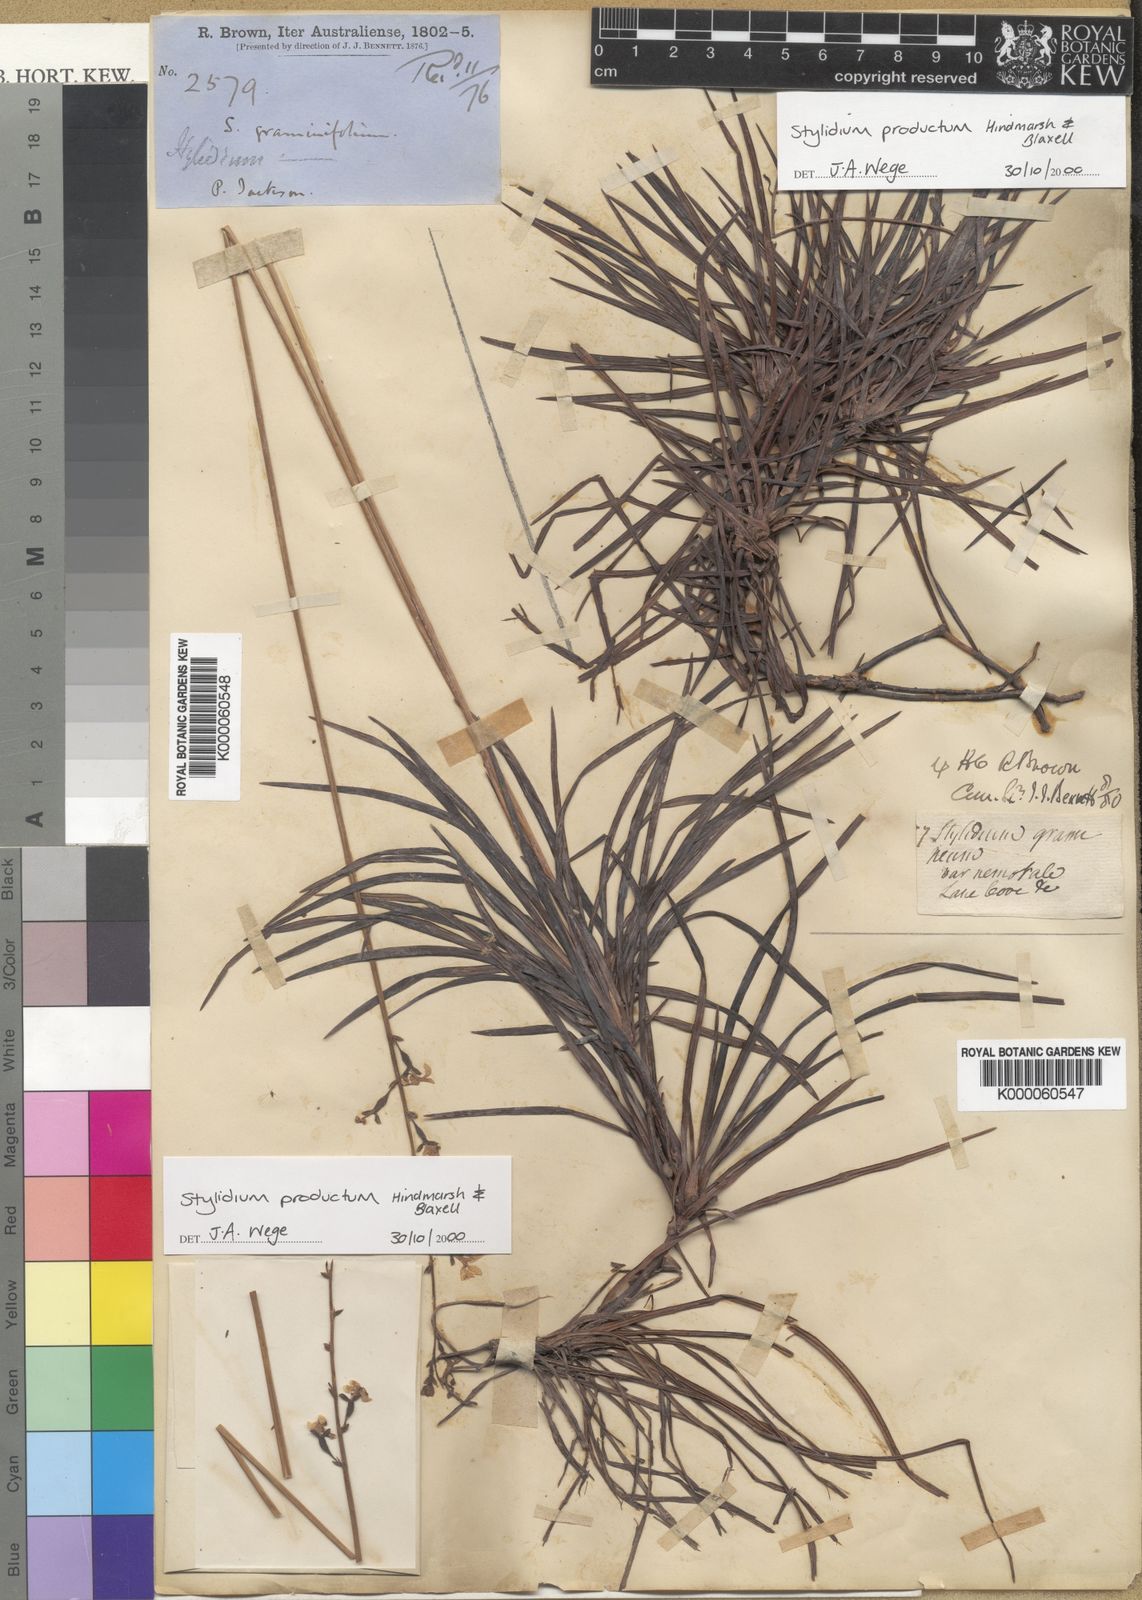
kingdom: Plantae
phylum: Tracheophyta
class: Magnoliopsida
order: Asterales
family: Stylidiaceae
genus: Stylidium
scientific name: Stylidium productum
